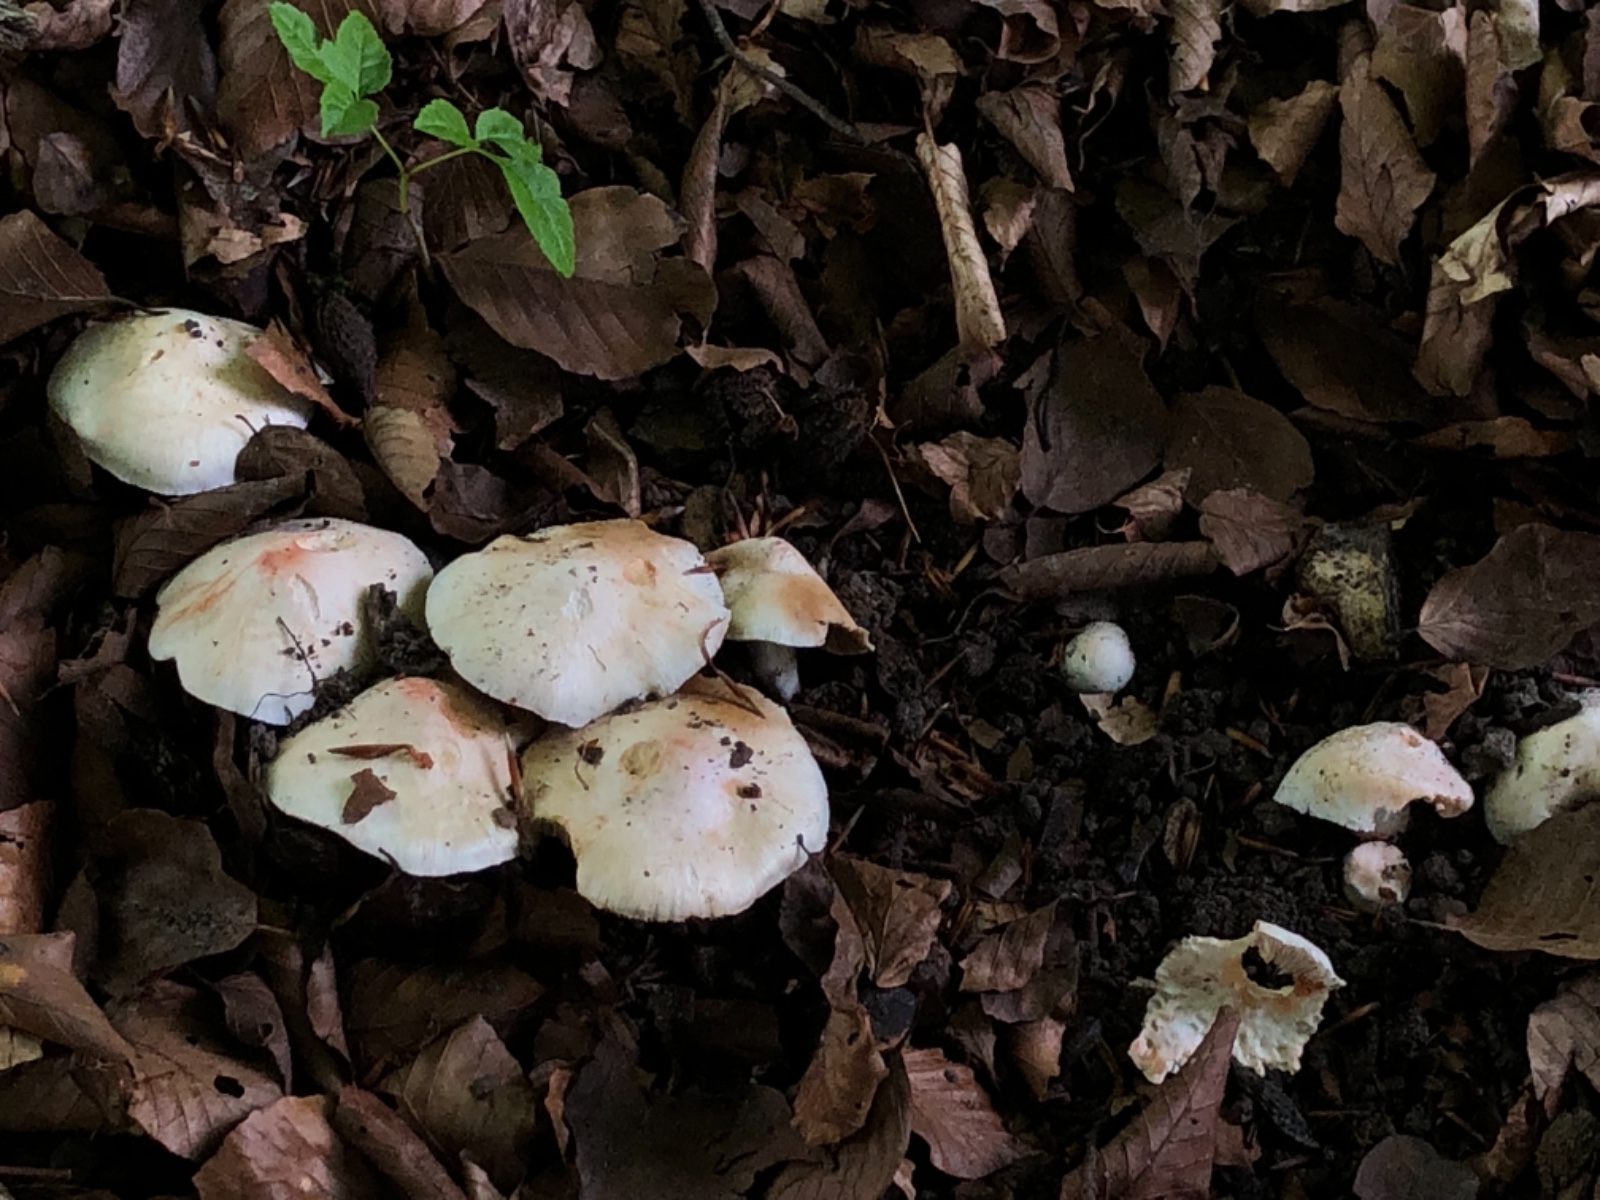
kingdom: Fungi
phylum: Basidiomycota
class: Agaricomycetes
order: Agaricales
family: Inocybaceae
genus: Inosperma
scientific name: Inosperma erubescens
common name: giftig trævlhat
